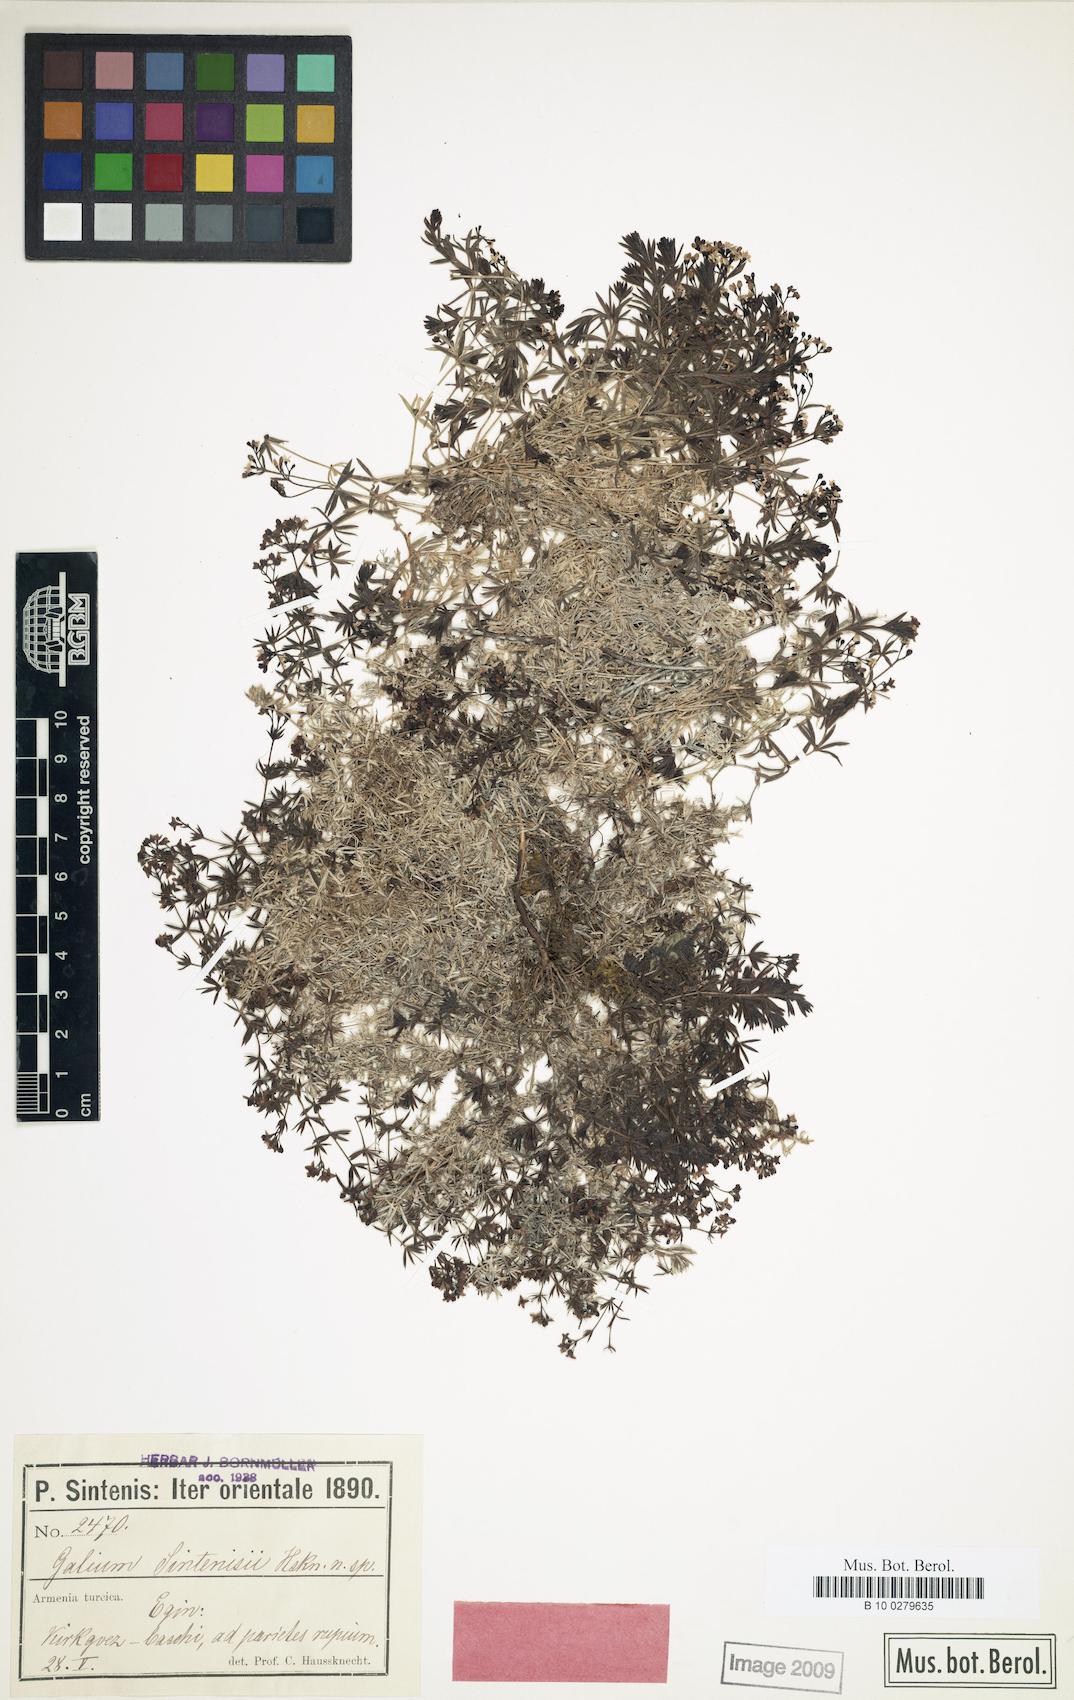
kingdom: Plantae
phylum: Tracheophyta
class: Magnoliopsida
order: Gentianales
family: Rubiaceae
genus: Galium
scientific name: Galium
